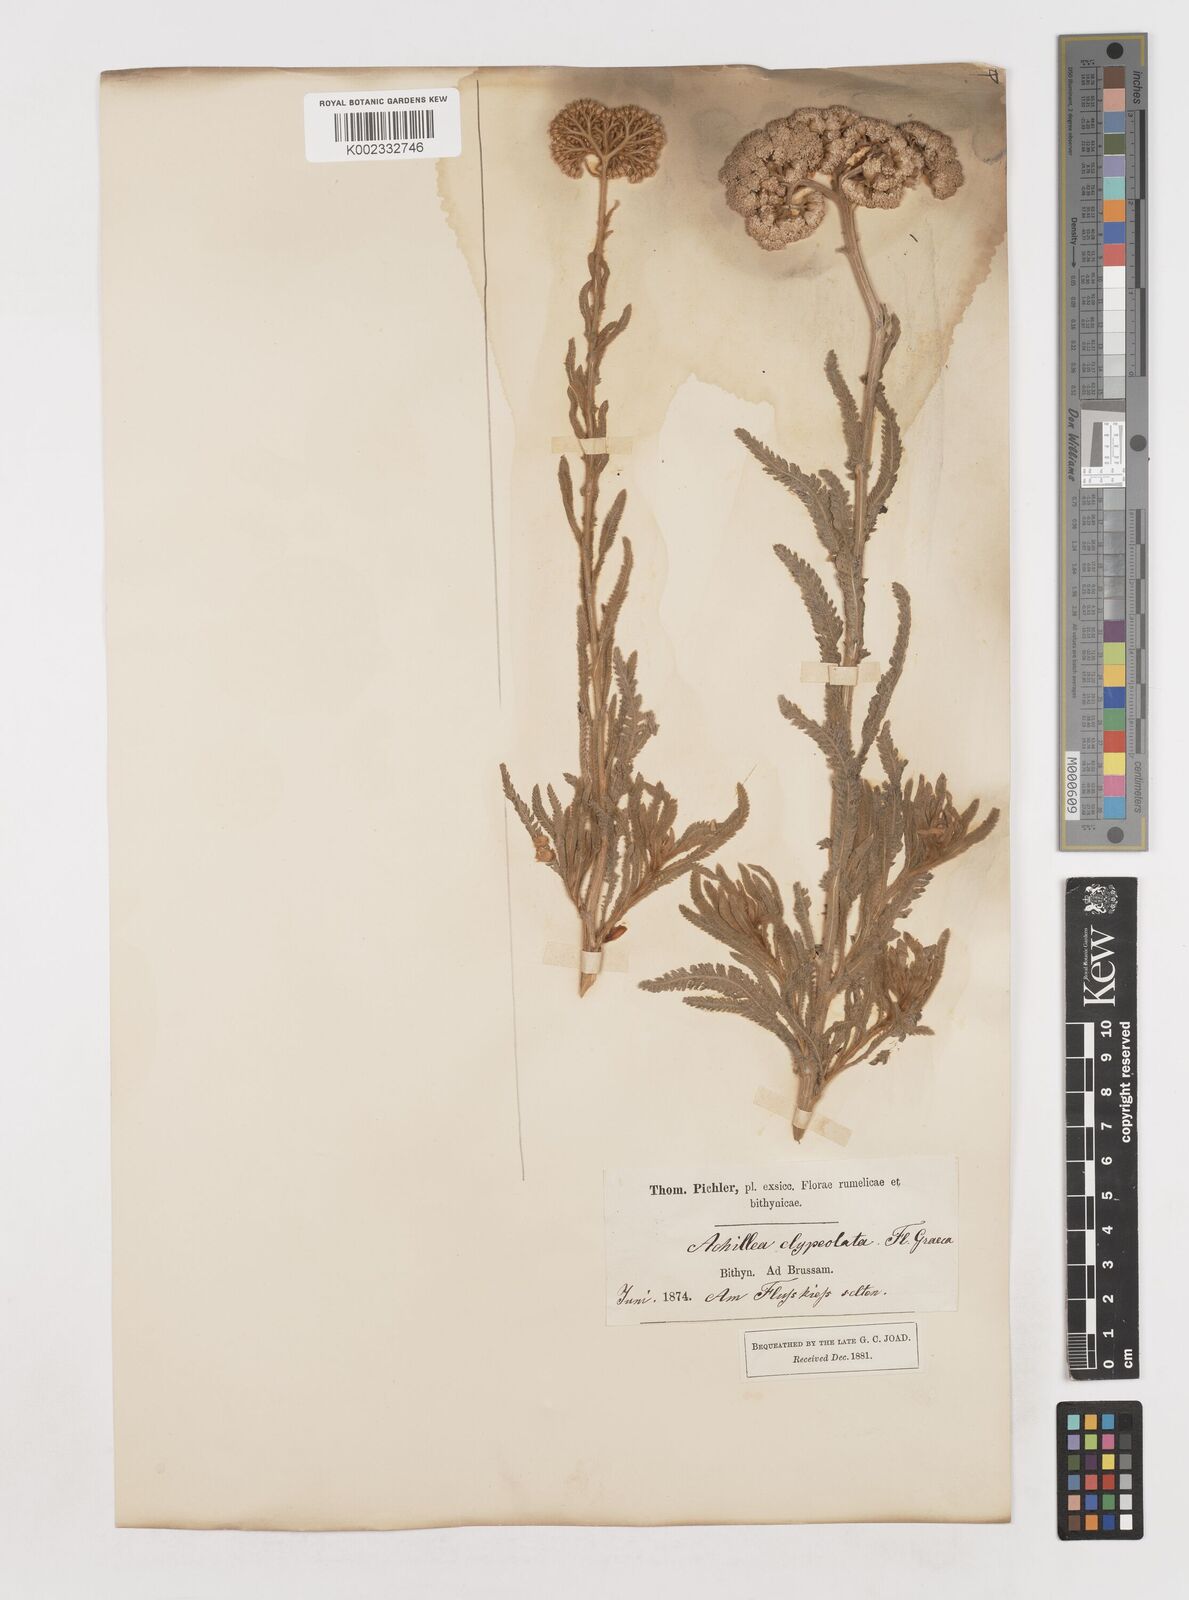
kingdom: Plantae
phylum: Tracheophyta
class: Magnoliopsida
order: Asterales
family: Asteraceae
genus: Achillea
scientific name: Achillea coarctata
